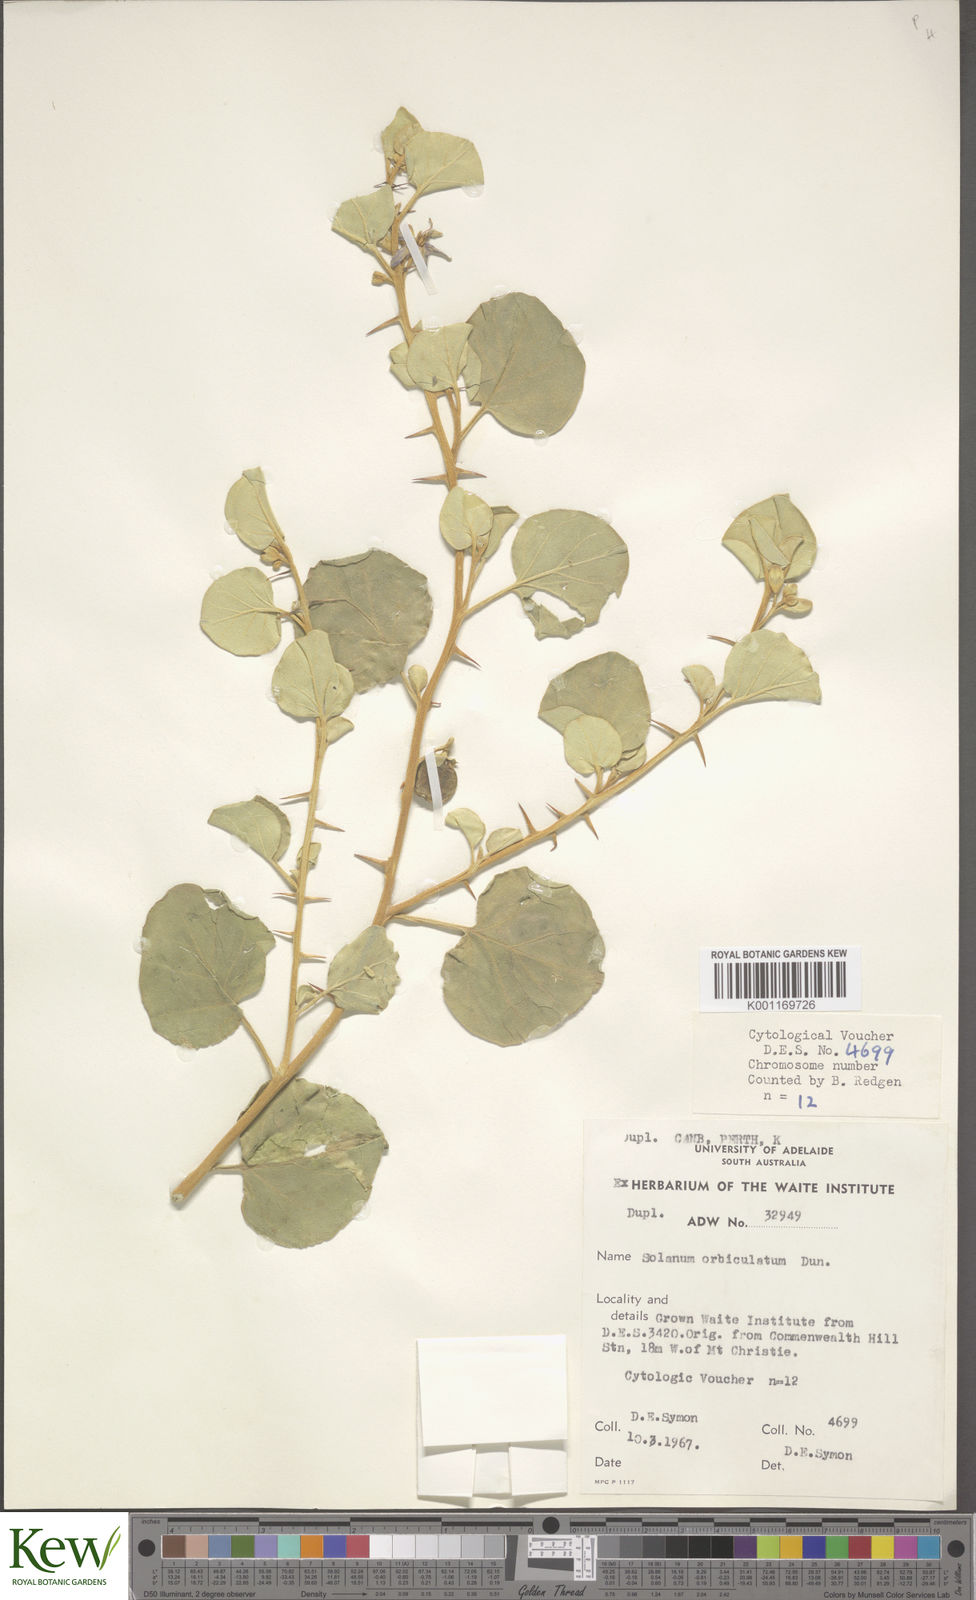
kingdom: Plantae
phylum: Tracheophyta
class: Magnoliopsida
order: Solanales
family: Solanaceae
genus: Solanum
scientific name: Solanum okadae
